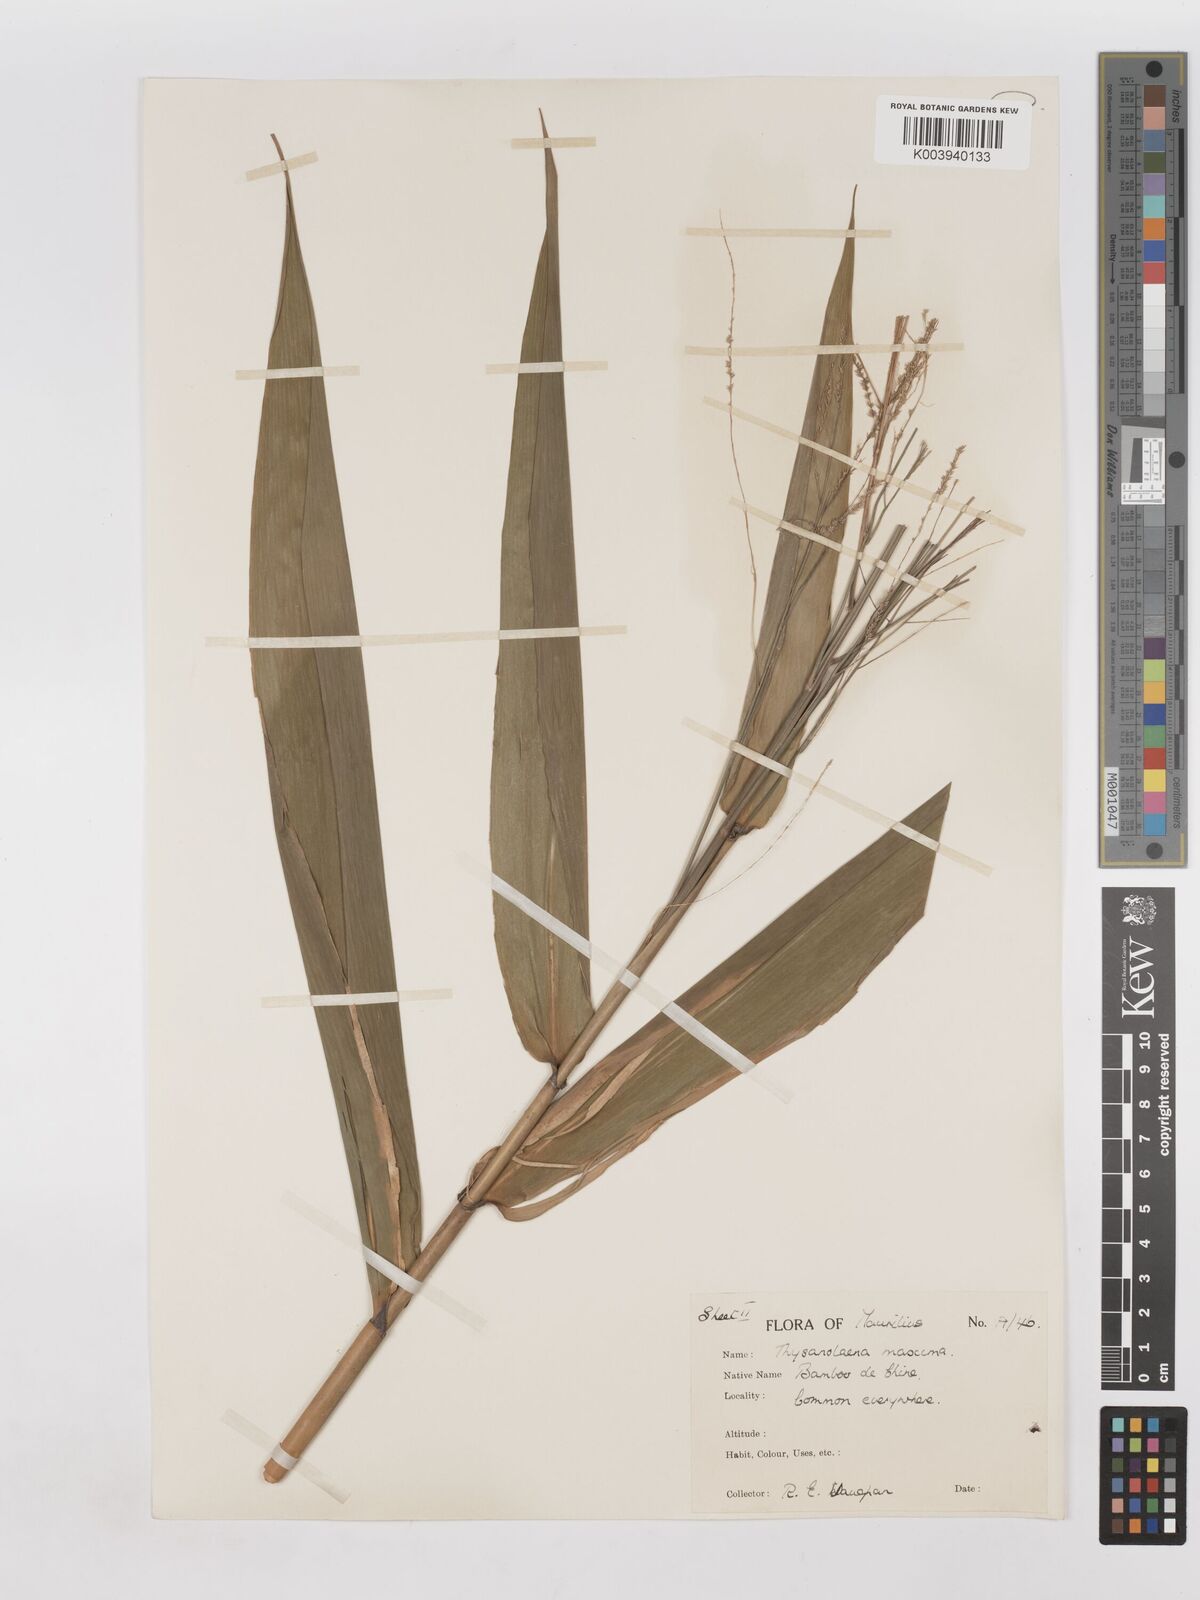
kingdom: Plantae
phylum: Tracheophyta
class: Liliopsida
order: Poales
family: Poaceae
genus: Thysanolaena
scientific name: Thysanolaena latifolia
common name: Tiger grass
